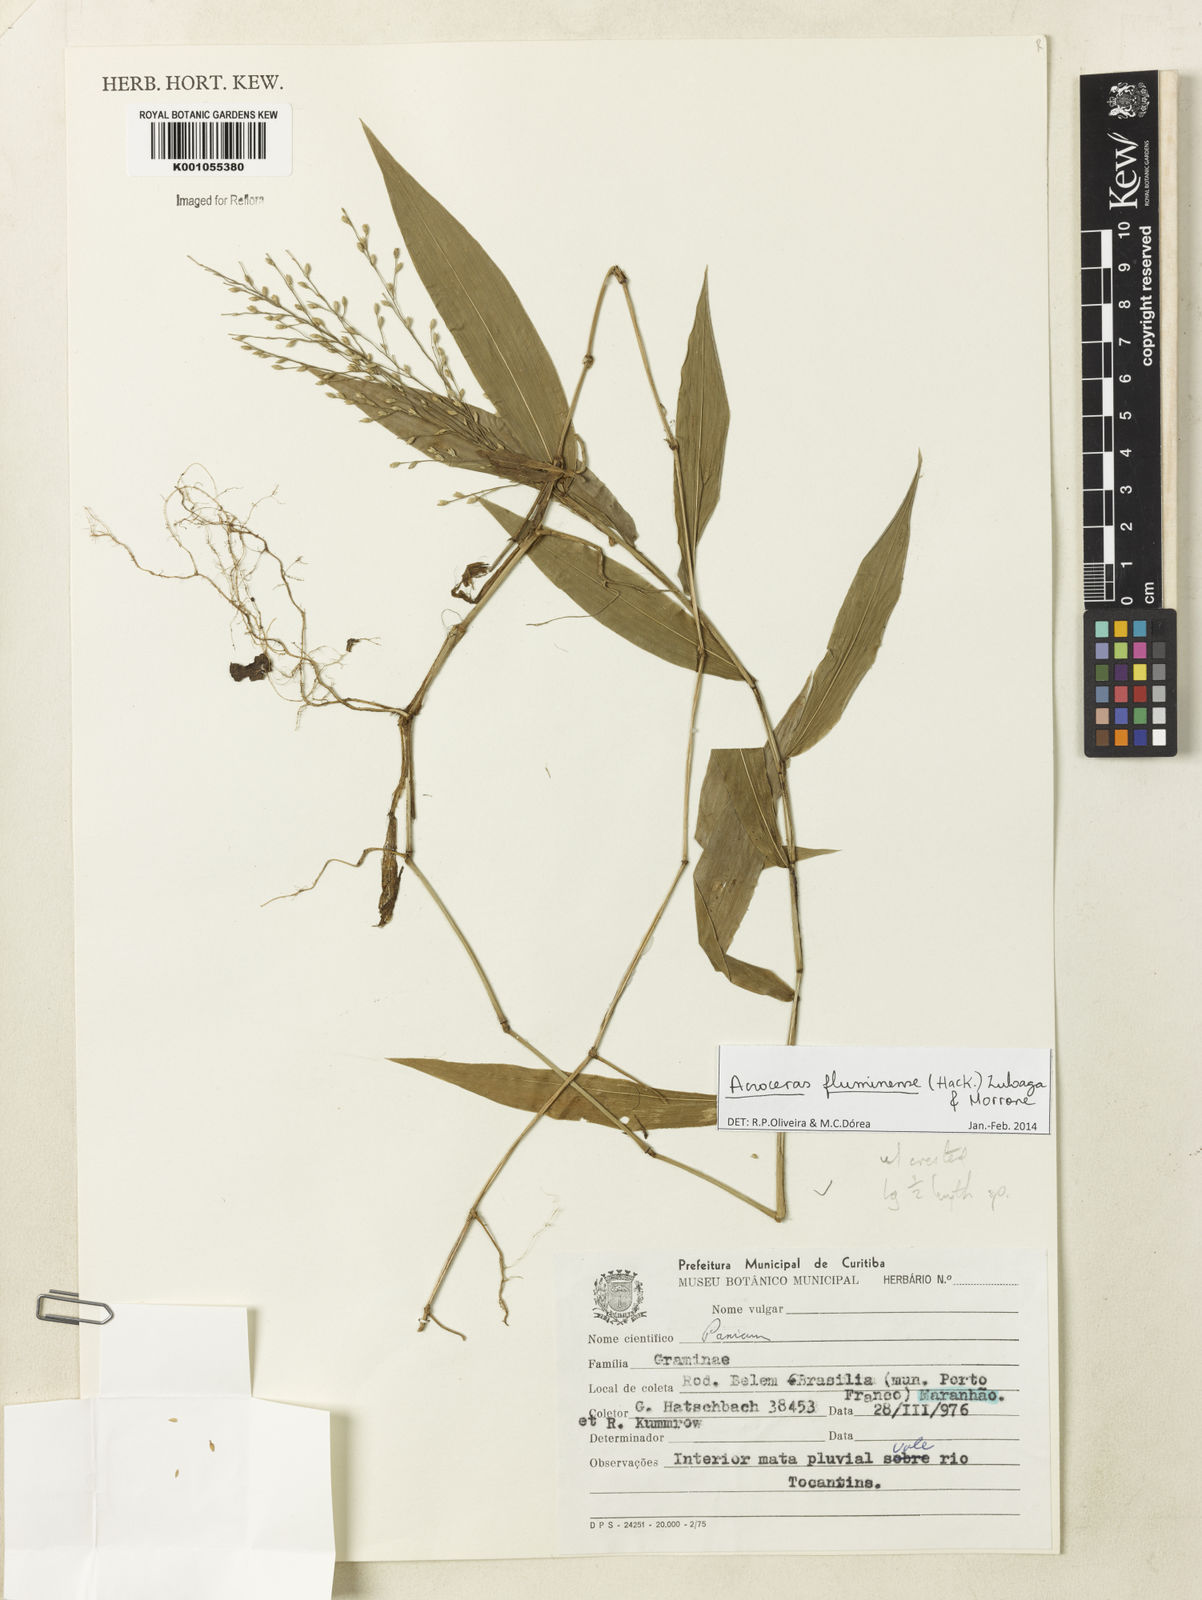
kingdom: Plantae
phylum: Tracheophyta
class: Liliopsida
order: Poales
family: Poaceae
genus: Acroceras
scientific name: Acroceras fluminense
